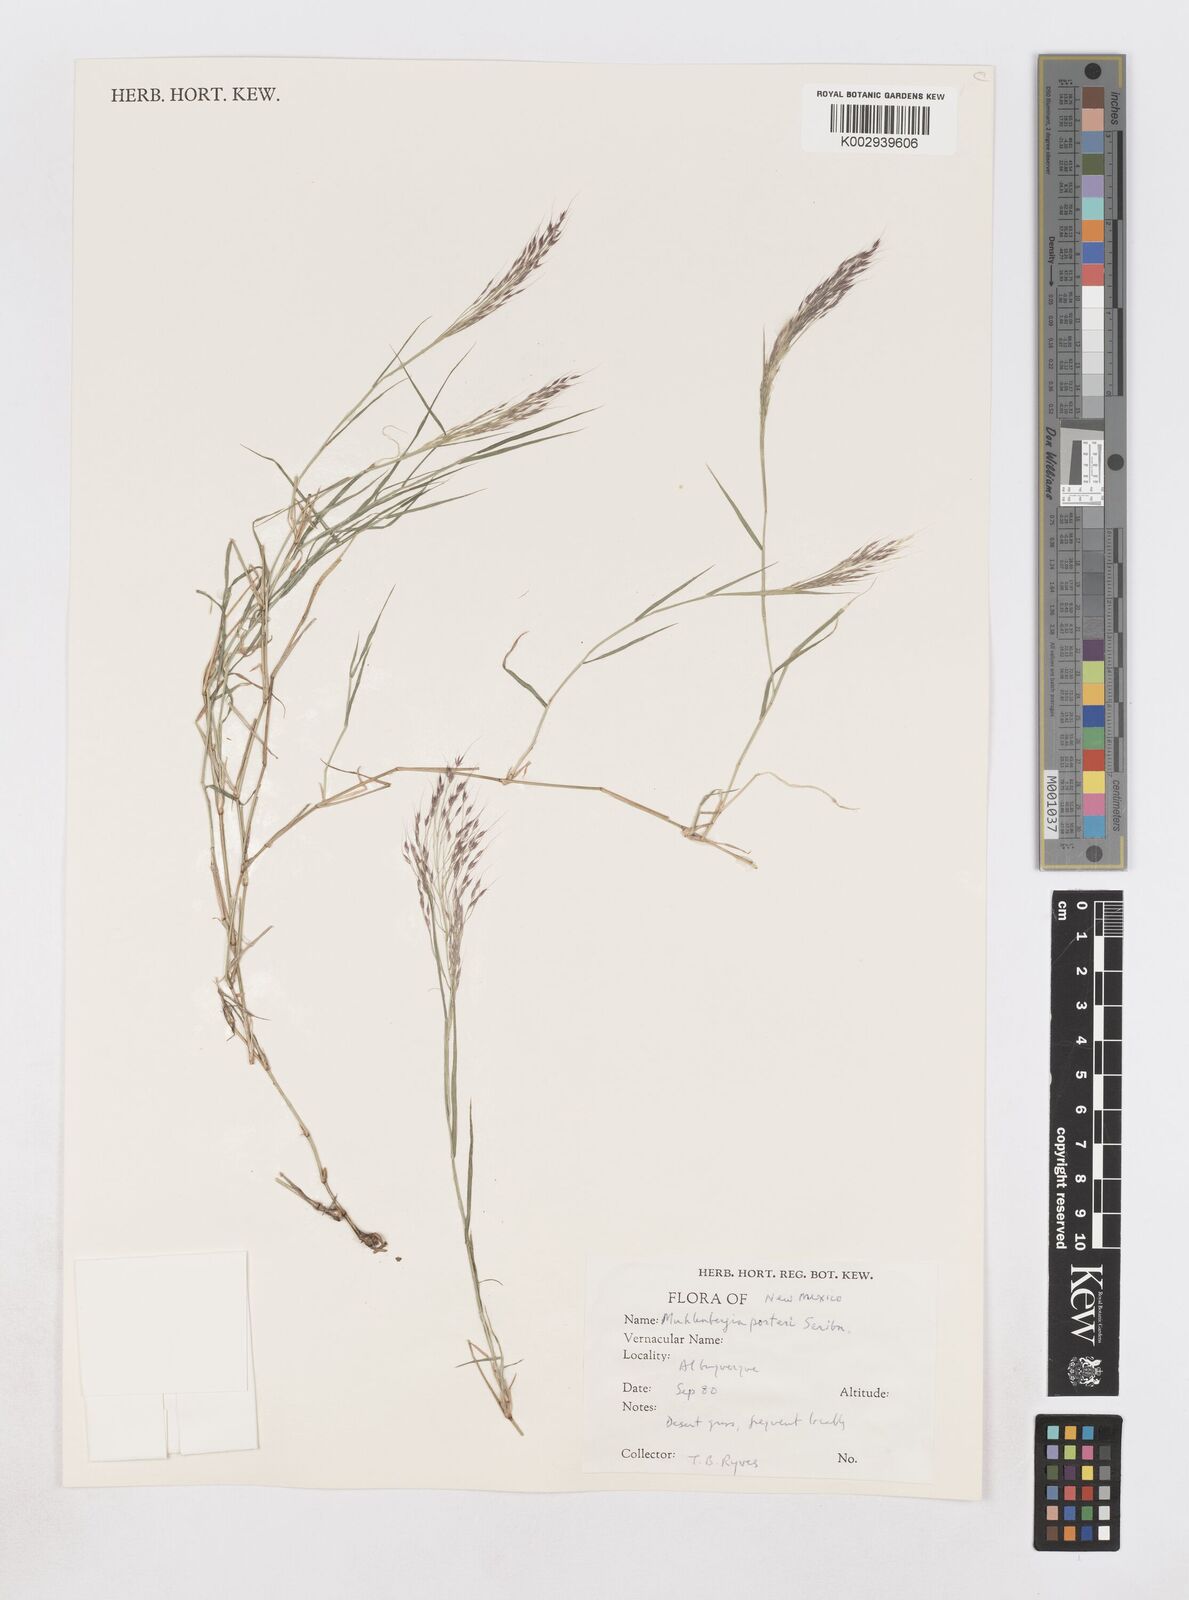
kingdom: Plantae
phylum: Tracheophyta
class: Liliopsida
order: Poales
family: Poaceae
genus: Muhlenbergia
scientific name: Muhlenbergia porteri
